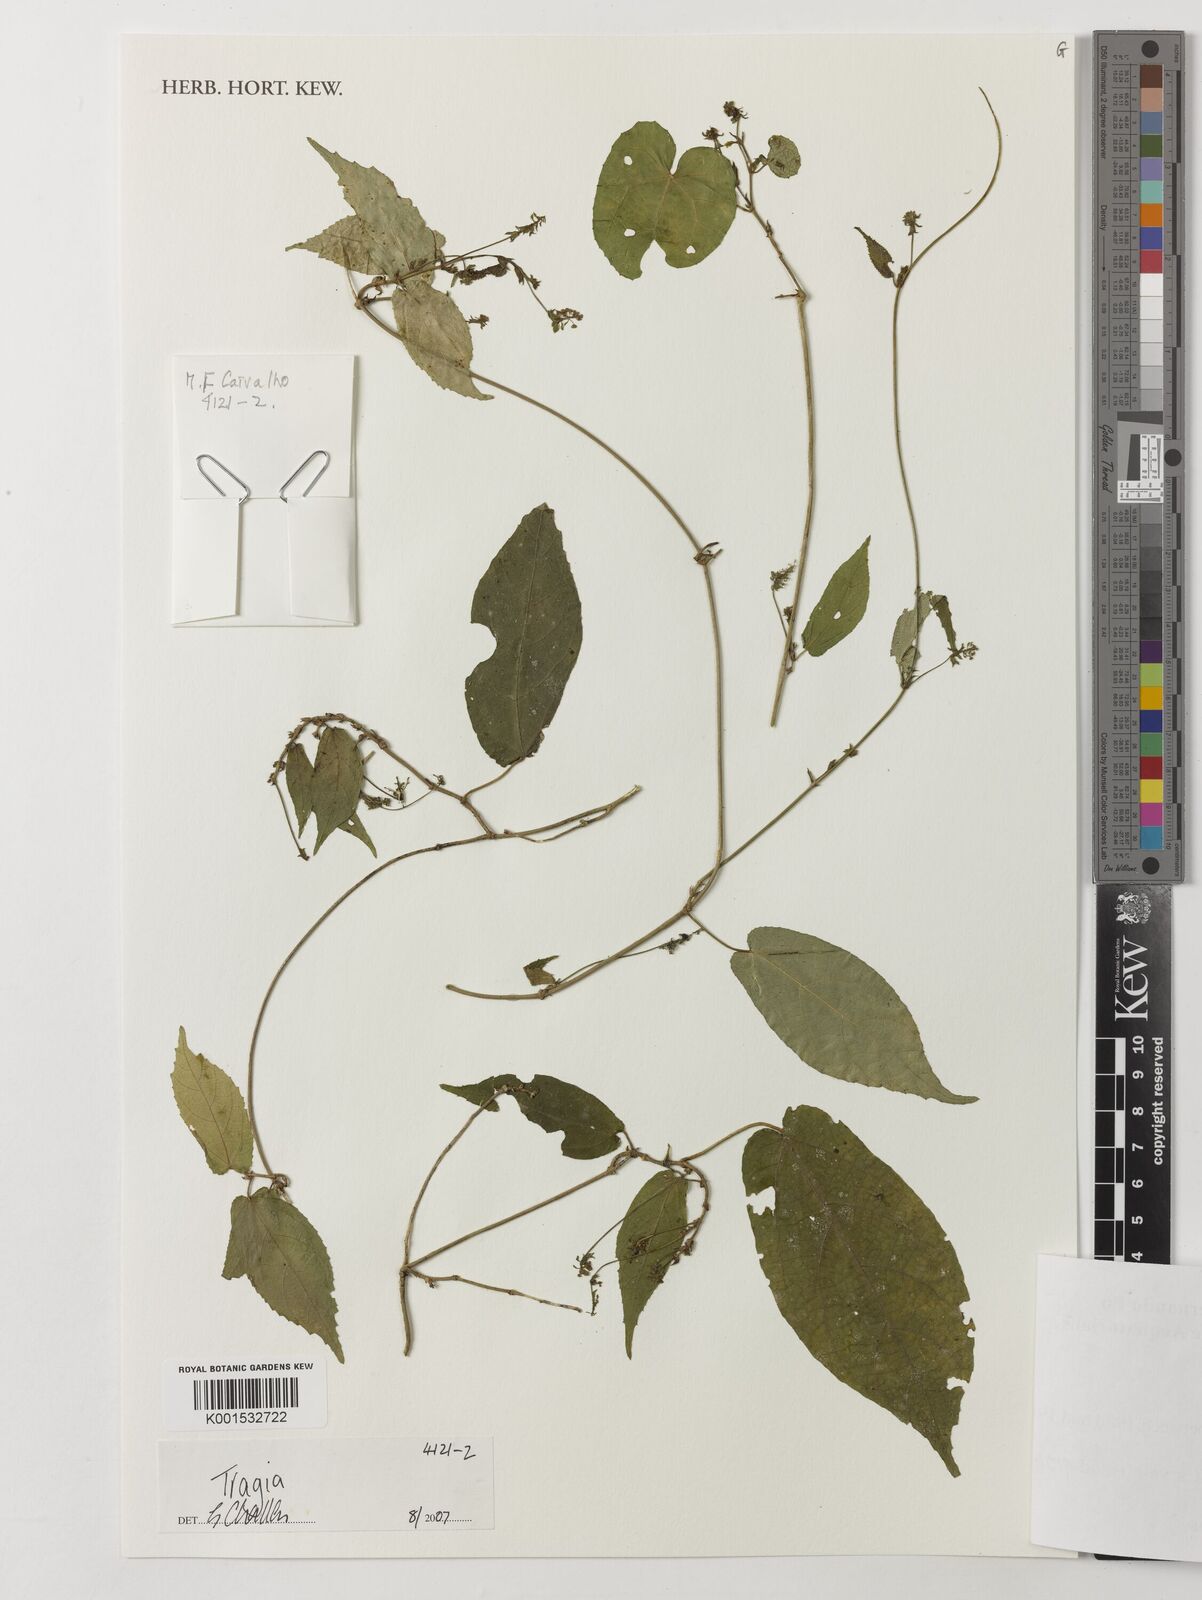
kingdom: Plantae
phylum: Tracheophyta
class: Magnoliopsida
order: Malpighiales
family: Euphorbiaceae
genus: Tragia
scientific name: Tragia
